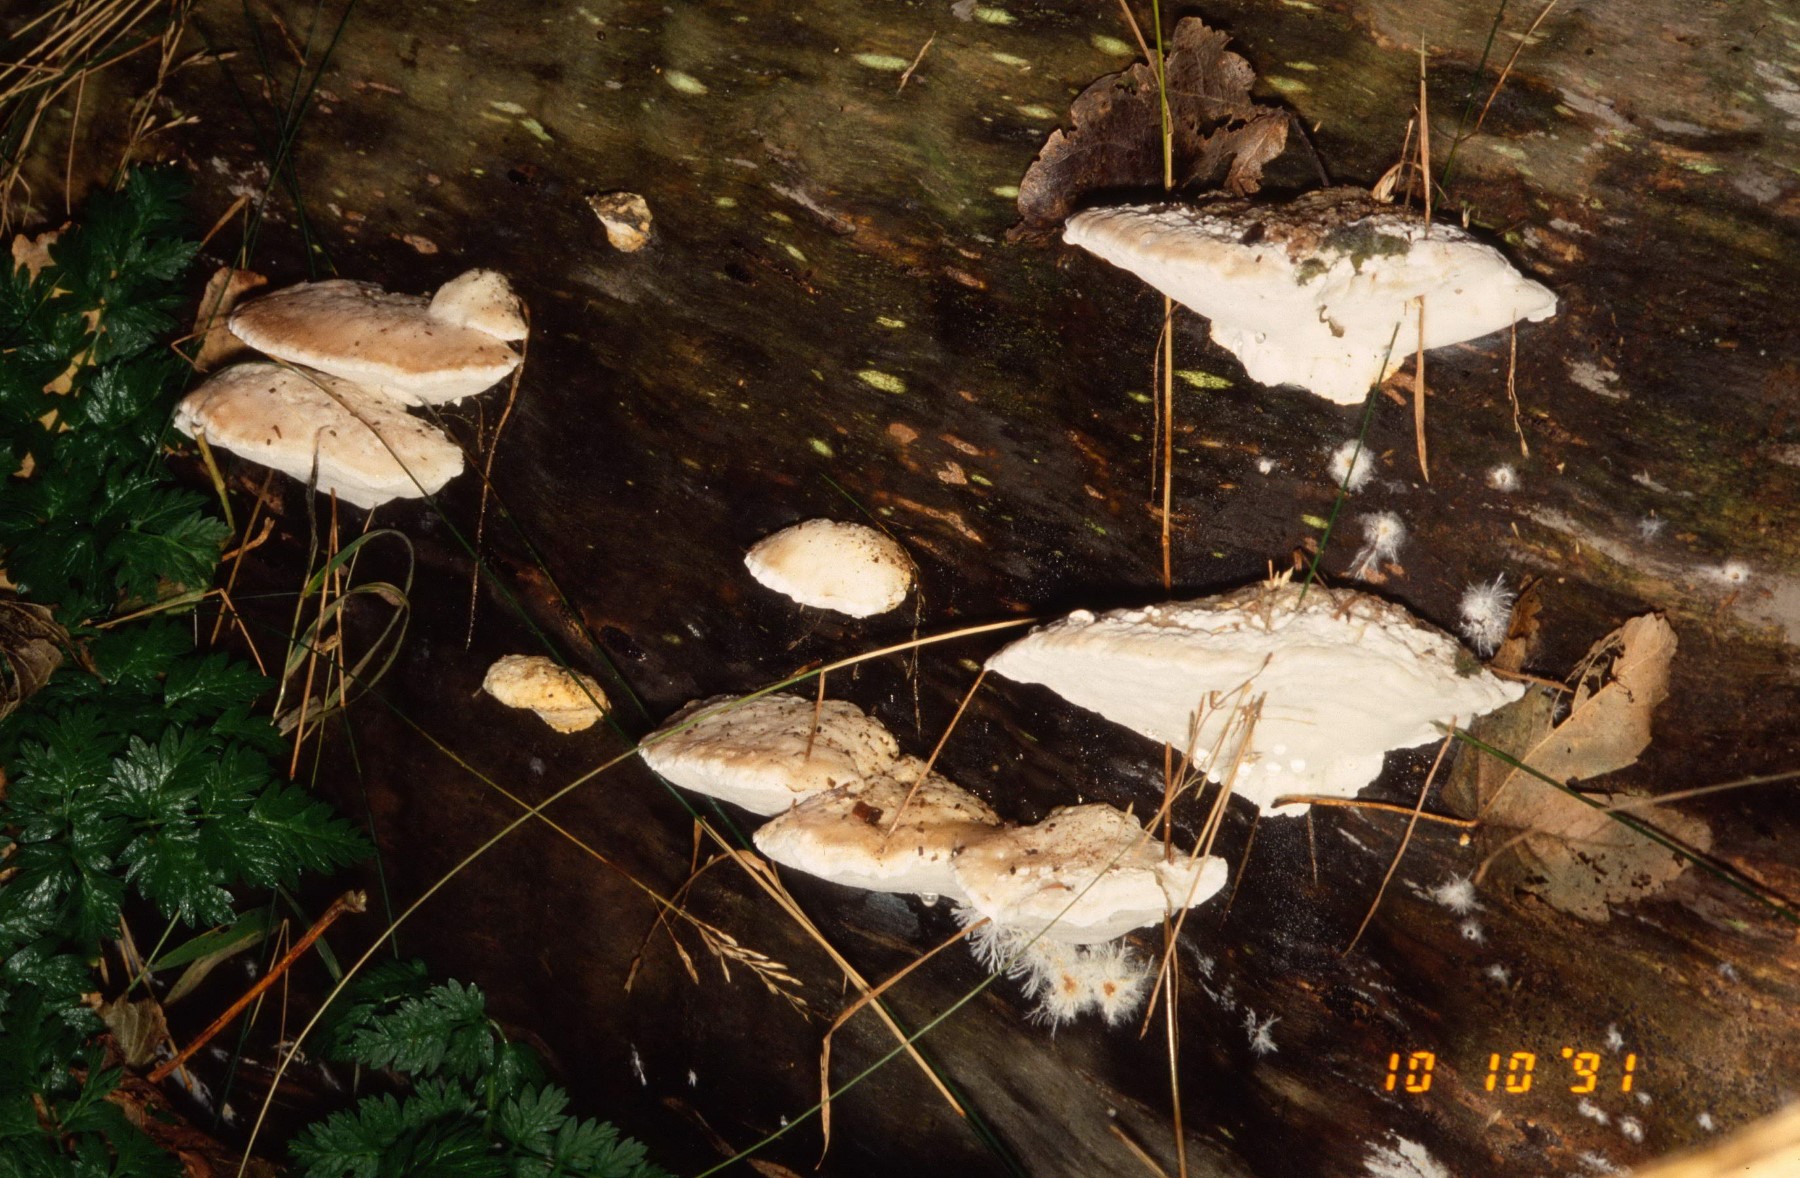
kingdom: Fungi
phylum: Basidiomycota
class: Agaricomycetes
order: Polyporales
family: Incrustoporiaceae
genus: Tyromyces
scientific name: Tyromyces chioneus
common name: stor blødporesvamp
